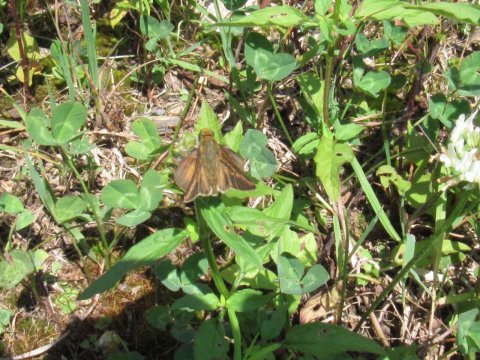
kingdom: Animalia
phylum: Arthropoda
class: Insecta
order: Lepidoptera
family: Hesperiidae
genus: Euphyes
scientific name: Euphyes vestris
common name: Dun Skipper
